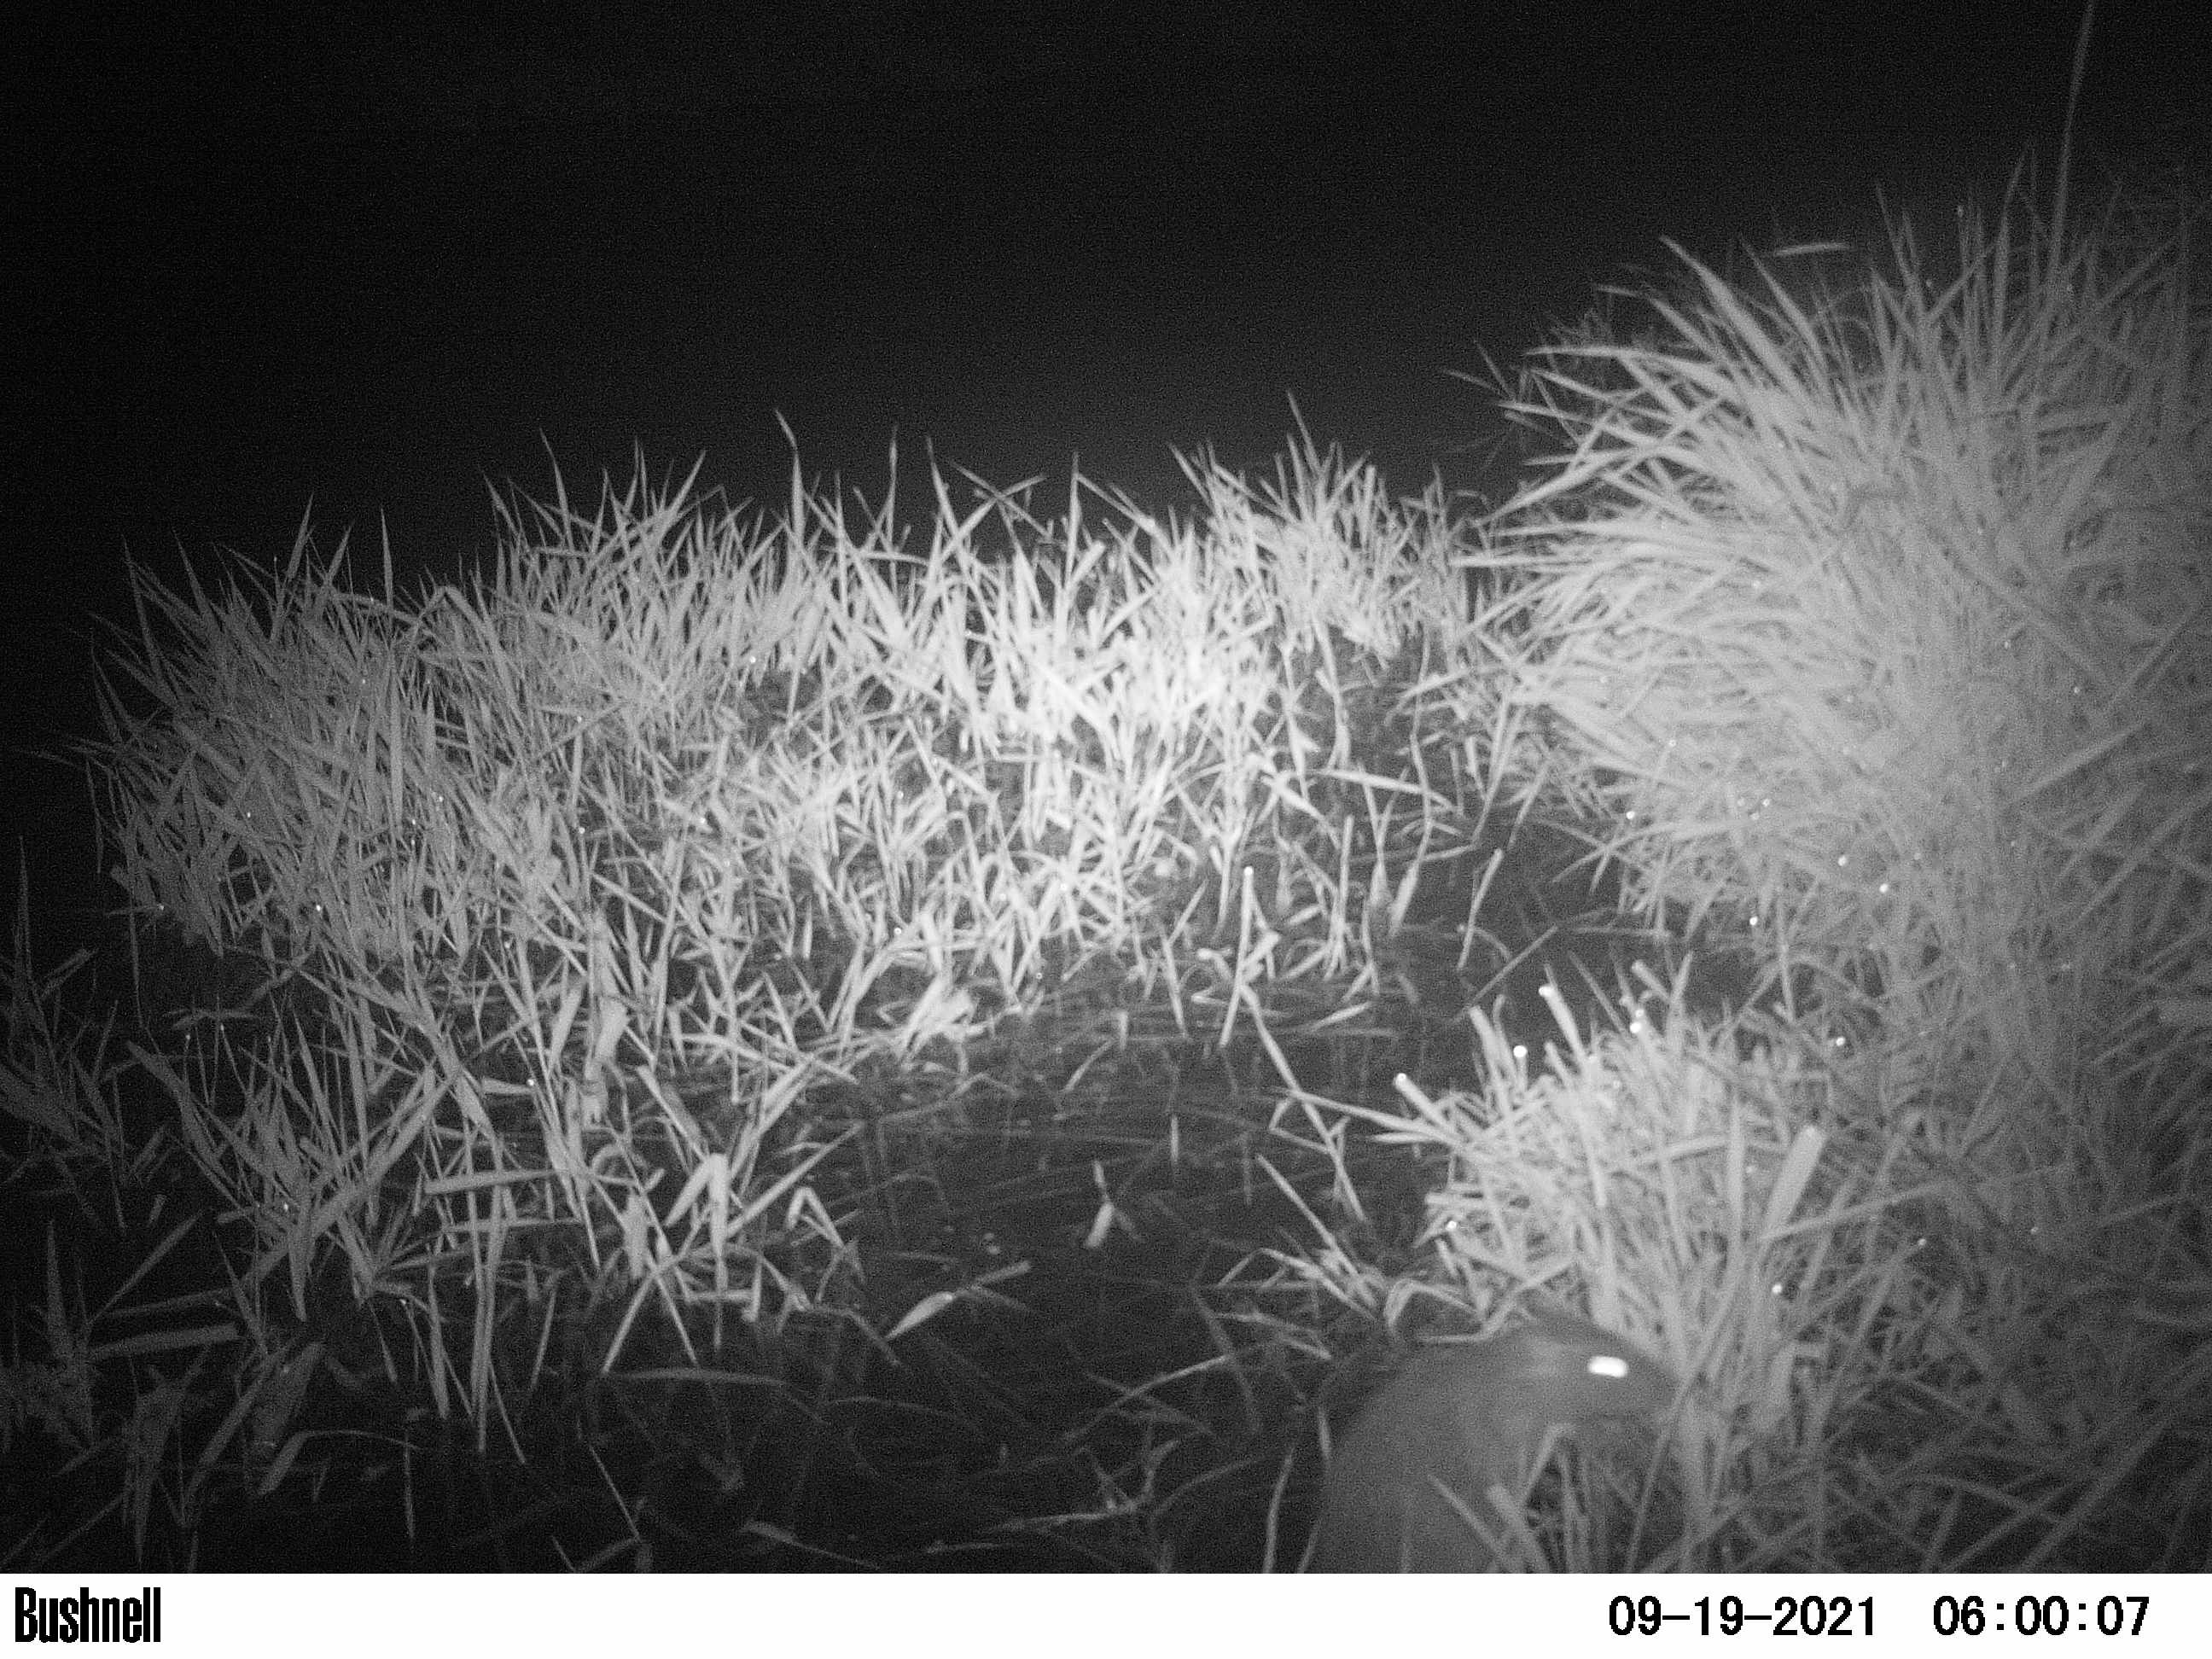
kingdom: Animalia
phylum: Chordata
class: Mammalia
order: Rodentia
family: Muridae
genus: Rattus
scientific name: Rattus norvegicus
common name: Brown rat
